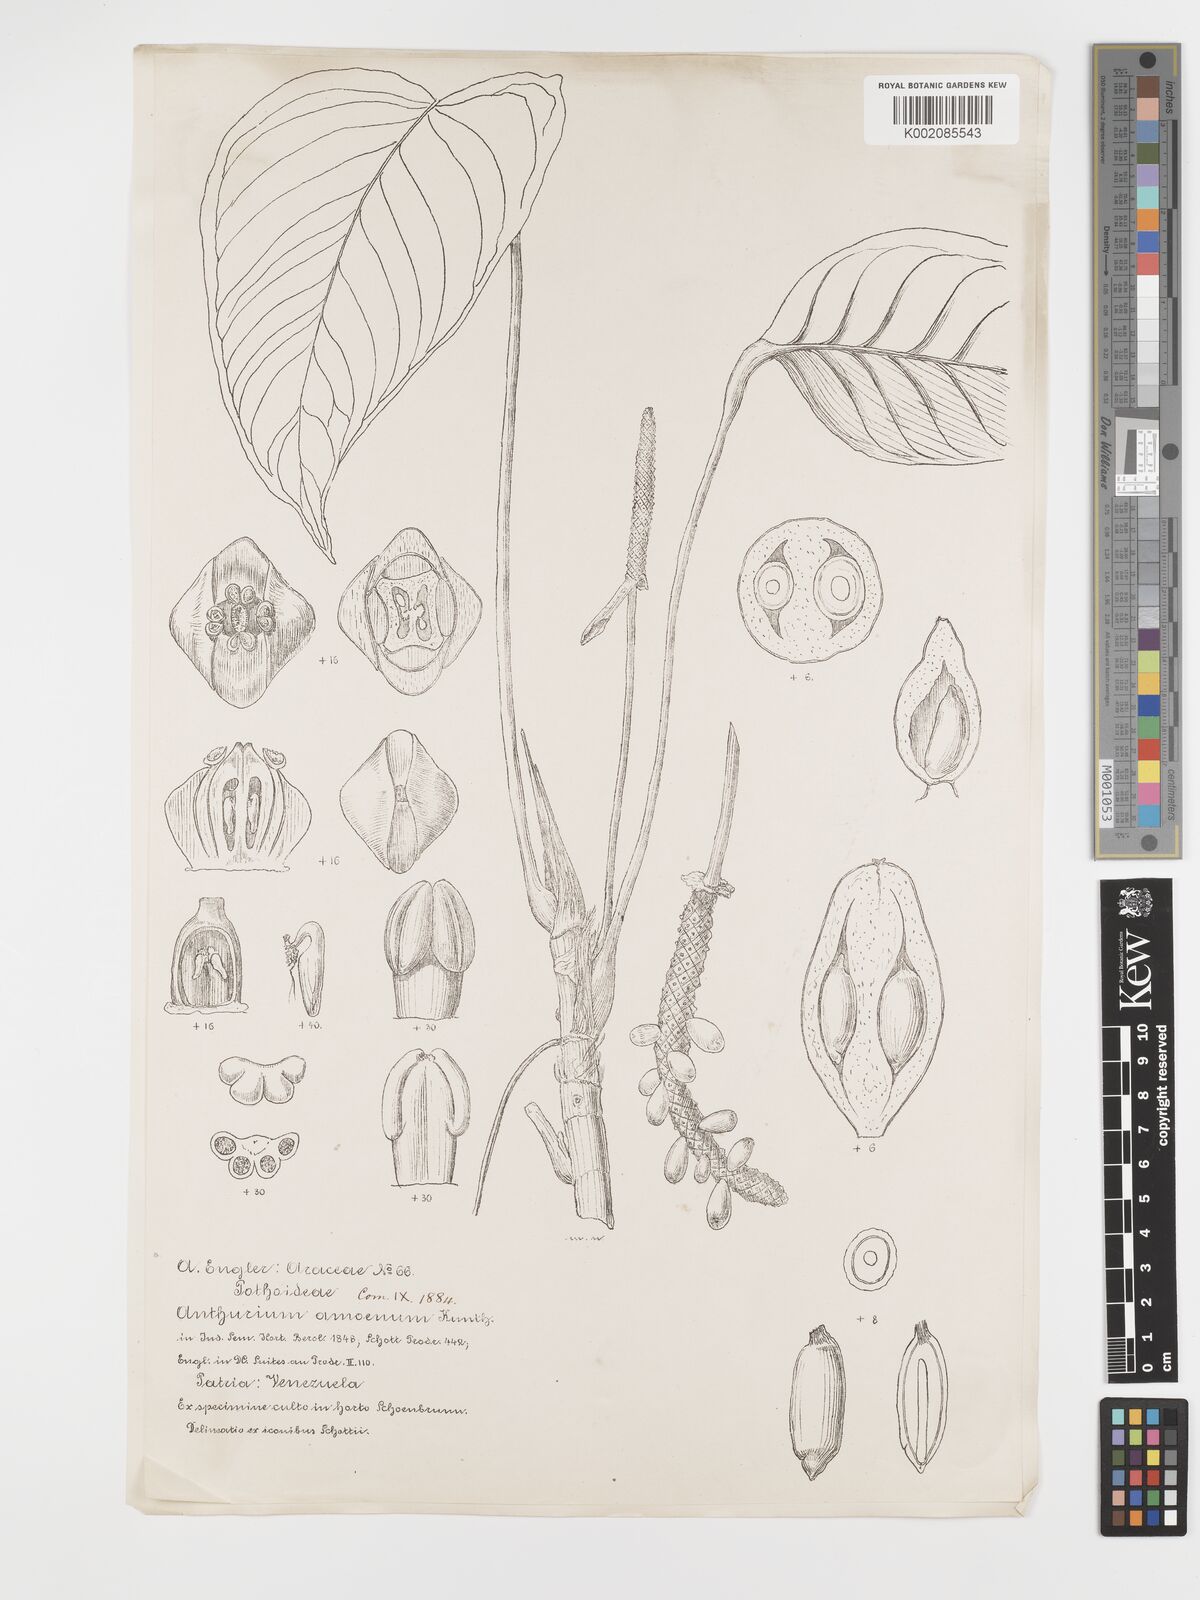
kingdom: Plantae
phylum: Tracheophyta
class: Liliopsida
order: Alismatales
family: Araceae
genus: Anthurium
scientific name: Anthurium amoenum
